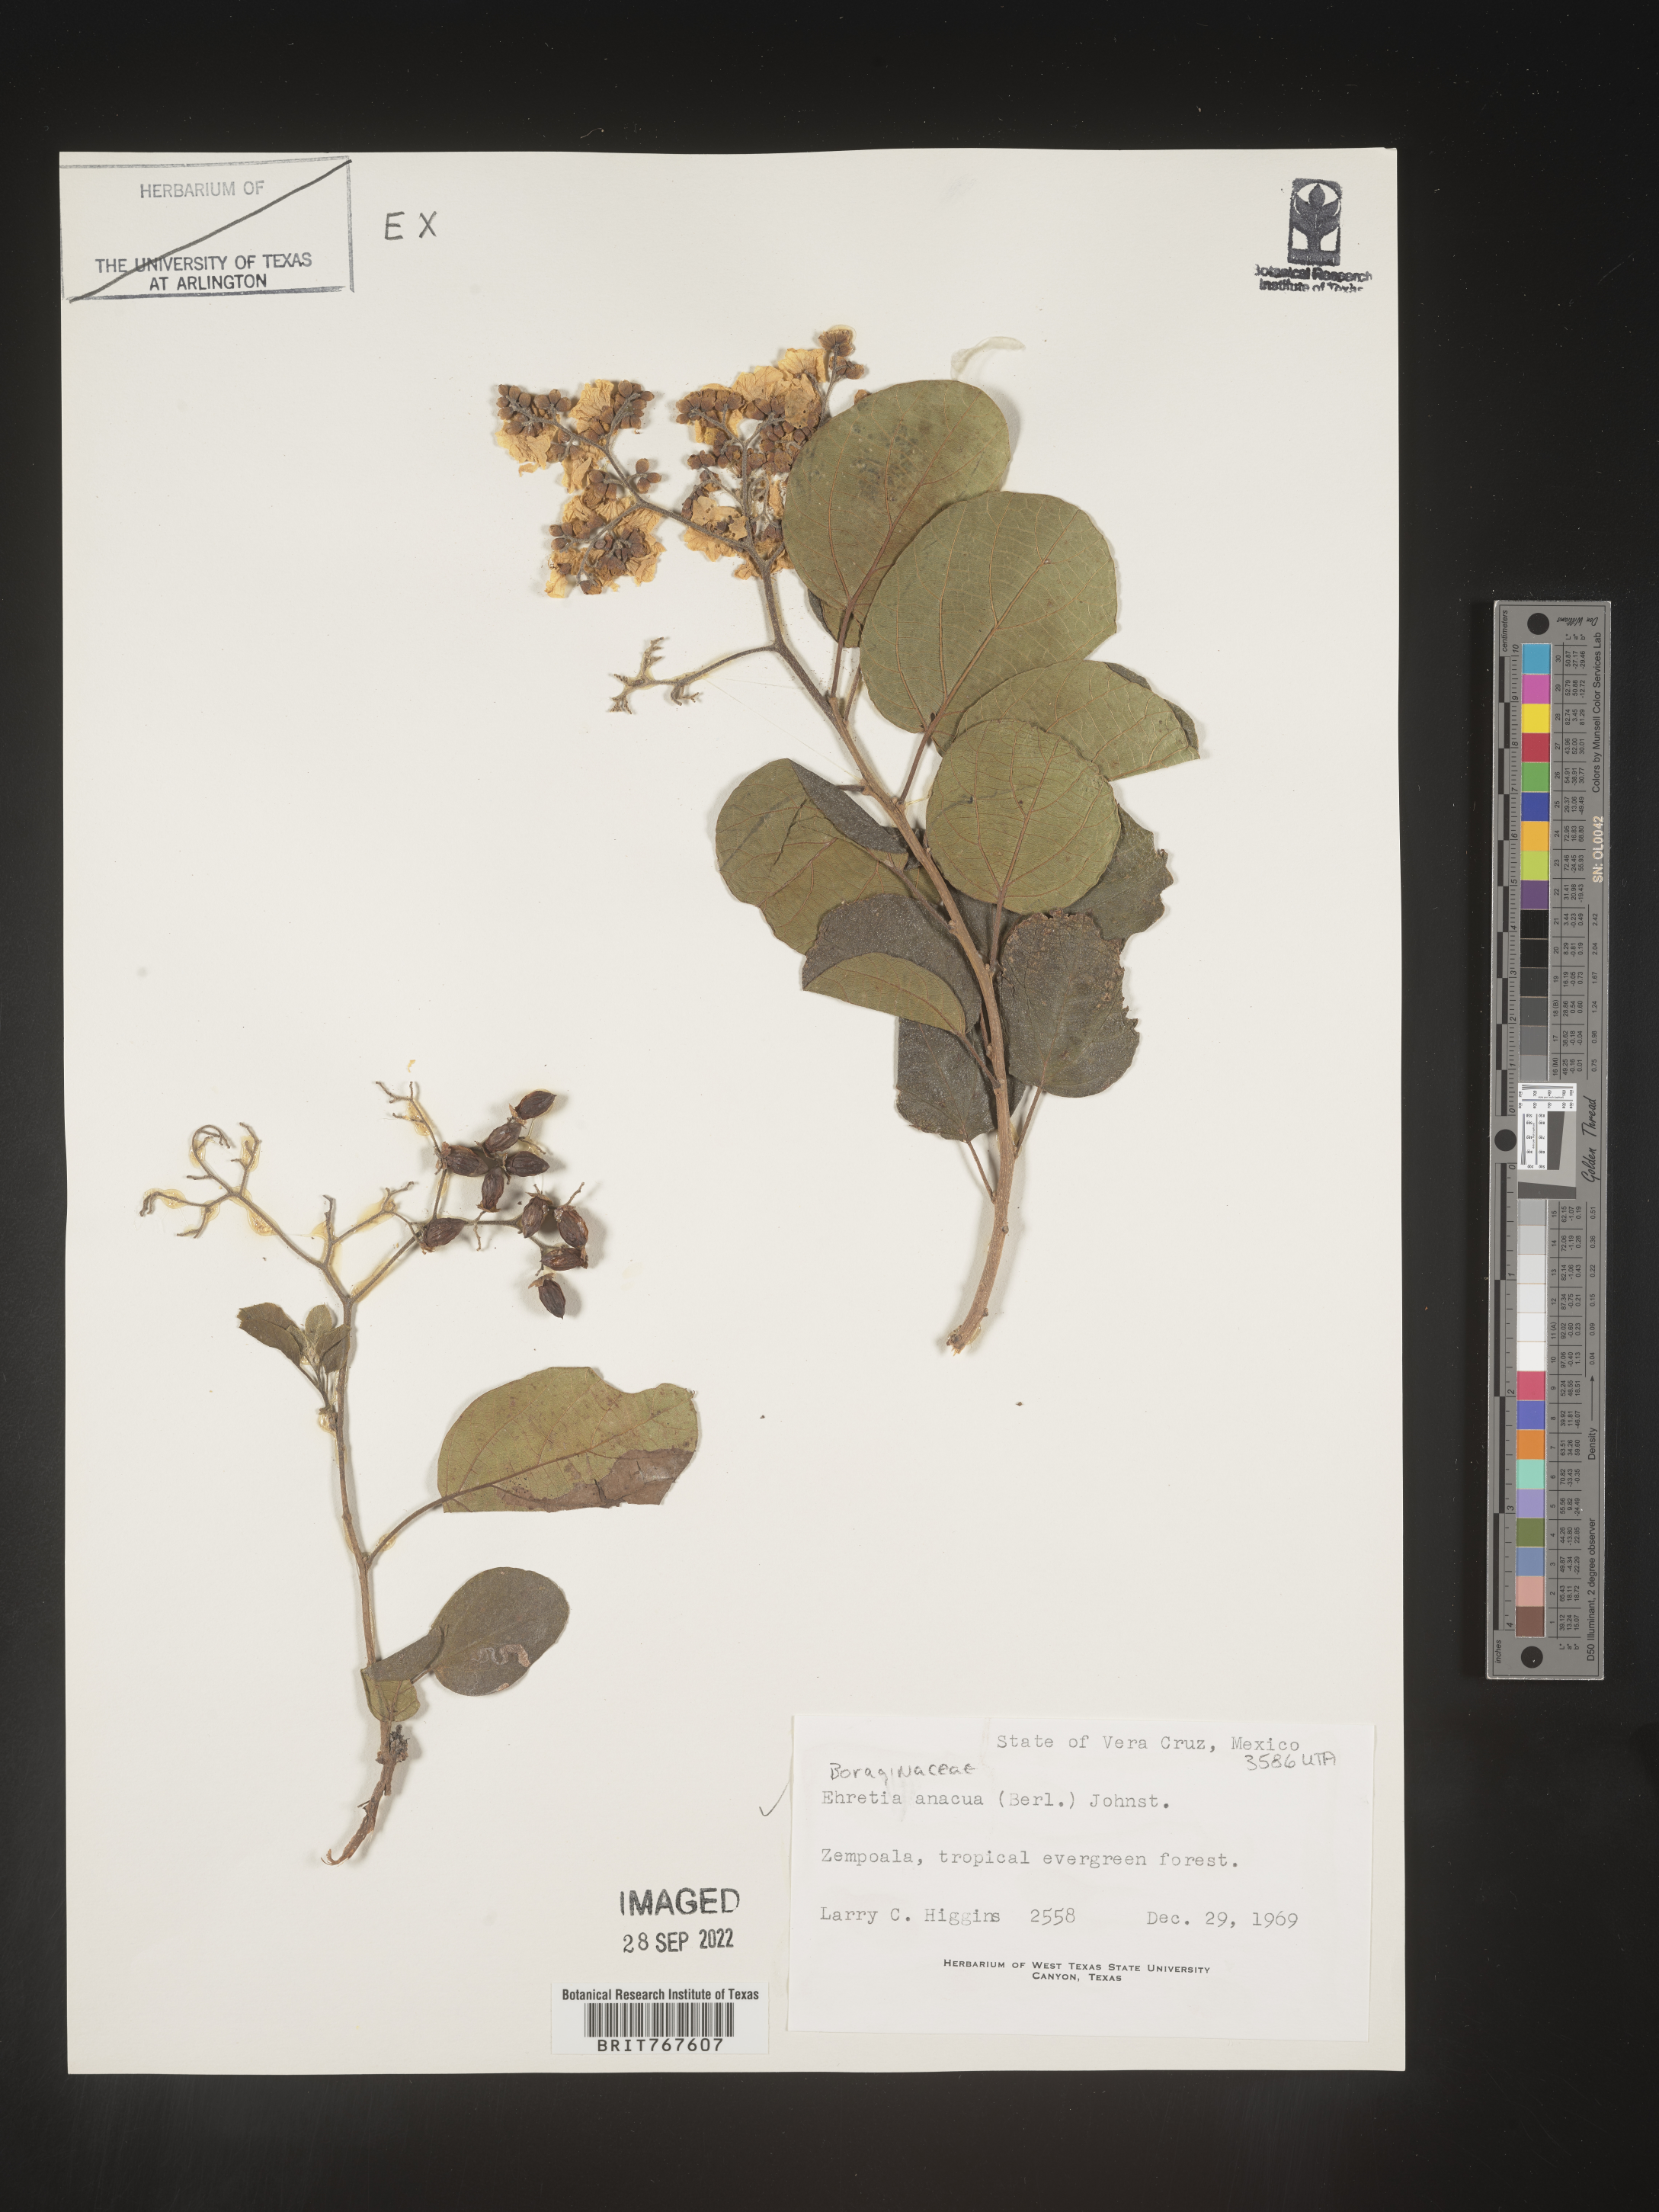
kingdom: Plantae
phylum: Tracheophyta
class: Magnoliopsida
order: Boraginales
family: Ehretiaceae
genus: Ehretia
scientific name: Ehretia
